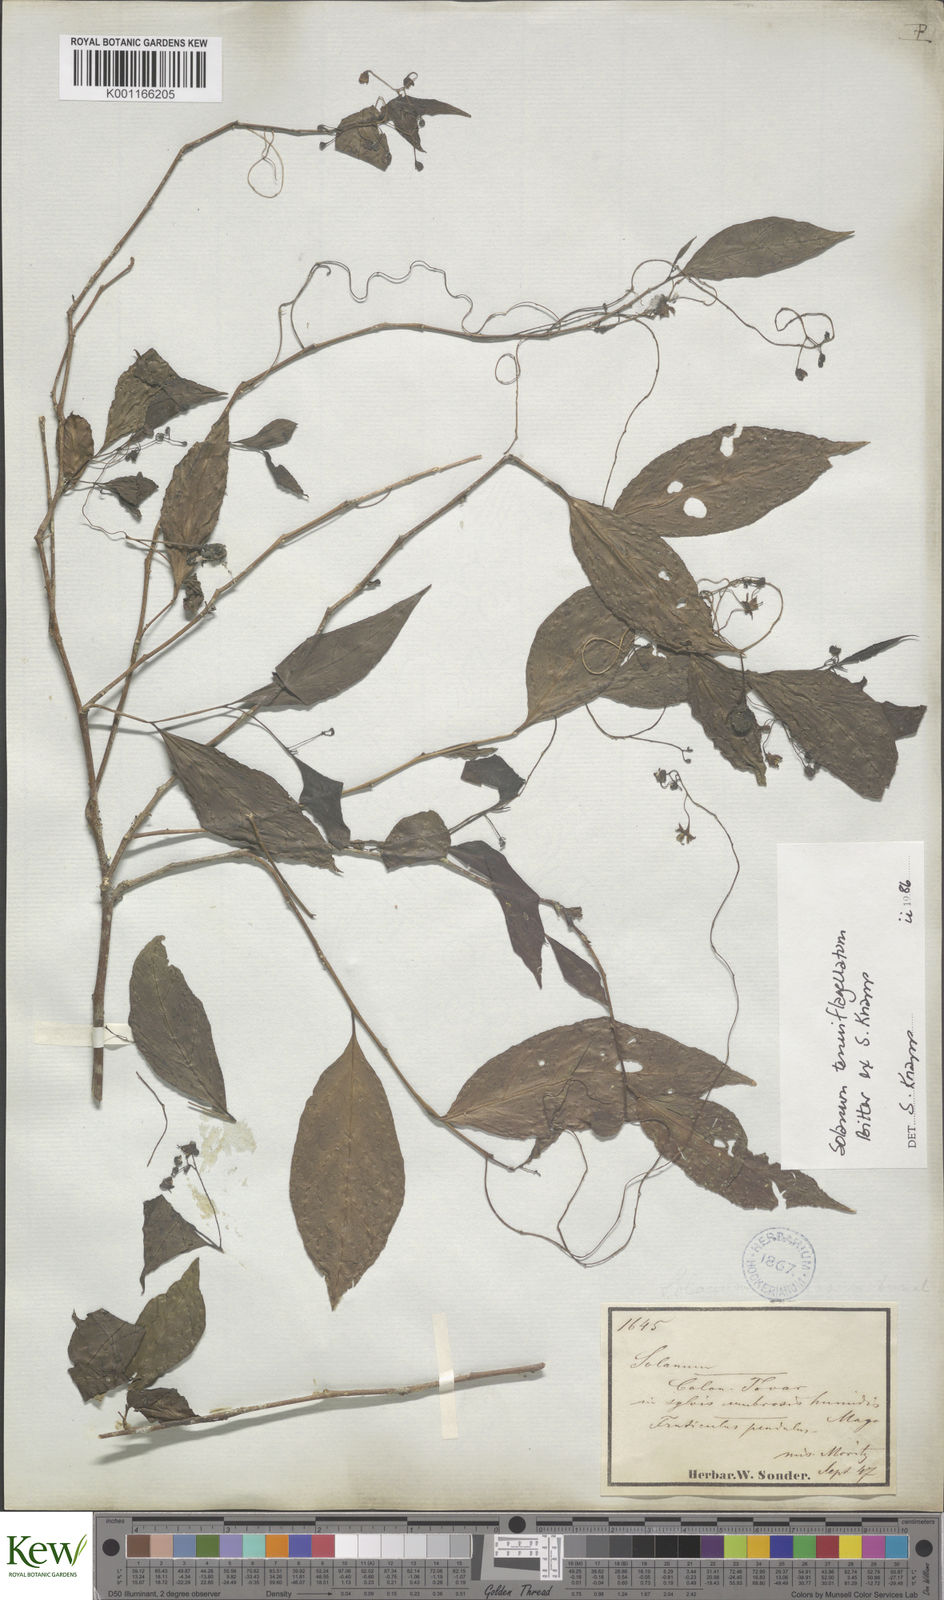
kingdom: Plantae
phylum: Tracheophyta
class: Magnoliopsida
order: Solanales
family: Solanaceae
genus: Solanum
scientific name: Solanum tenuiflagellatum
